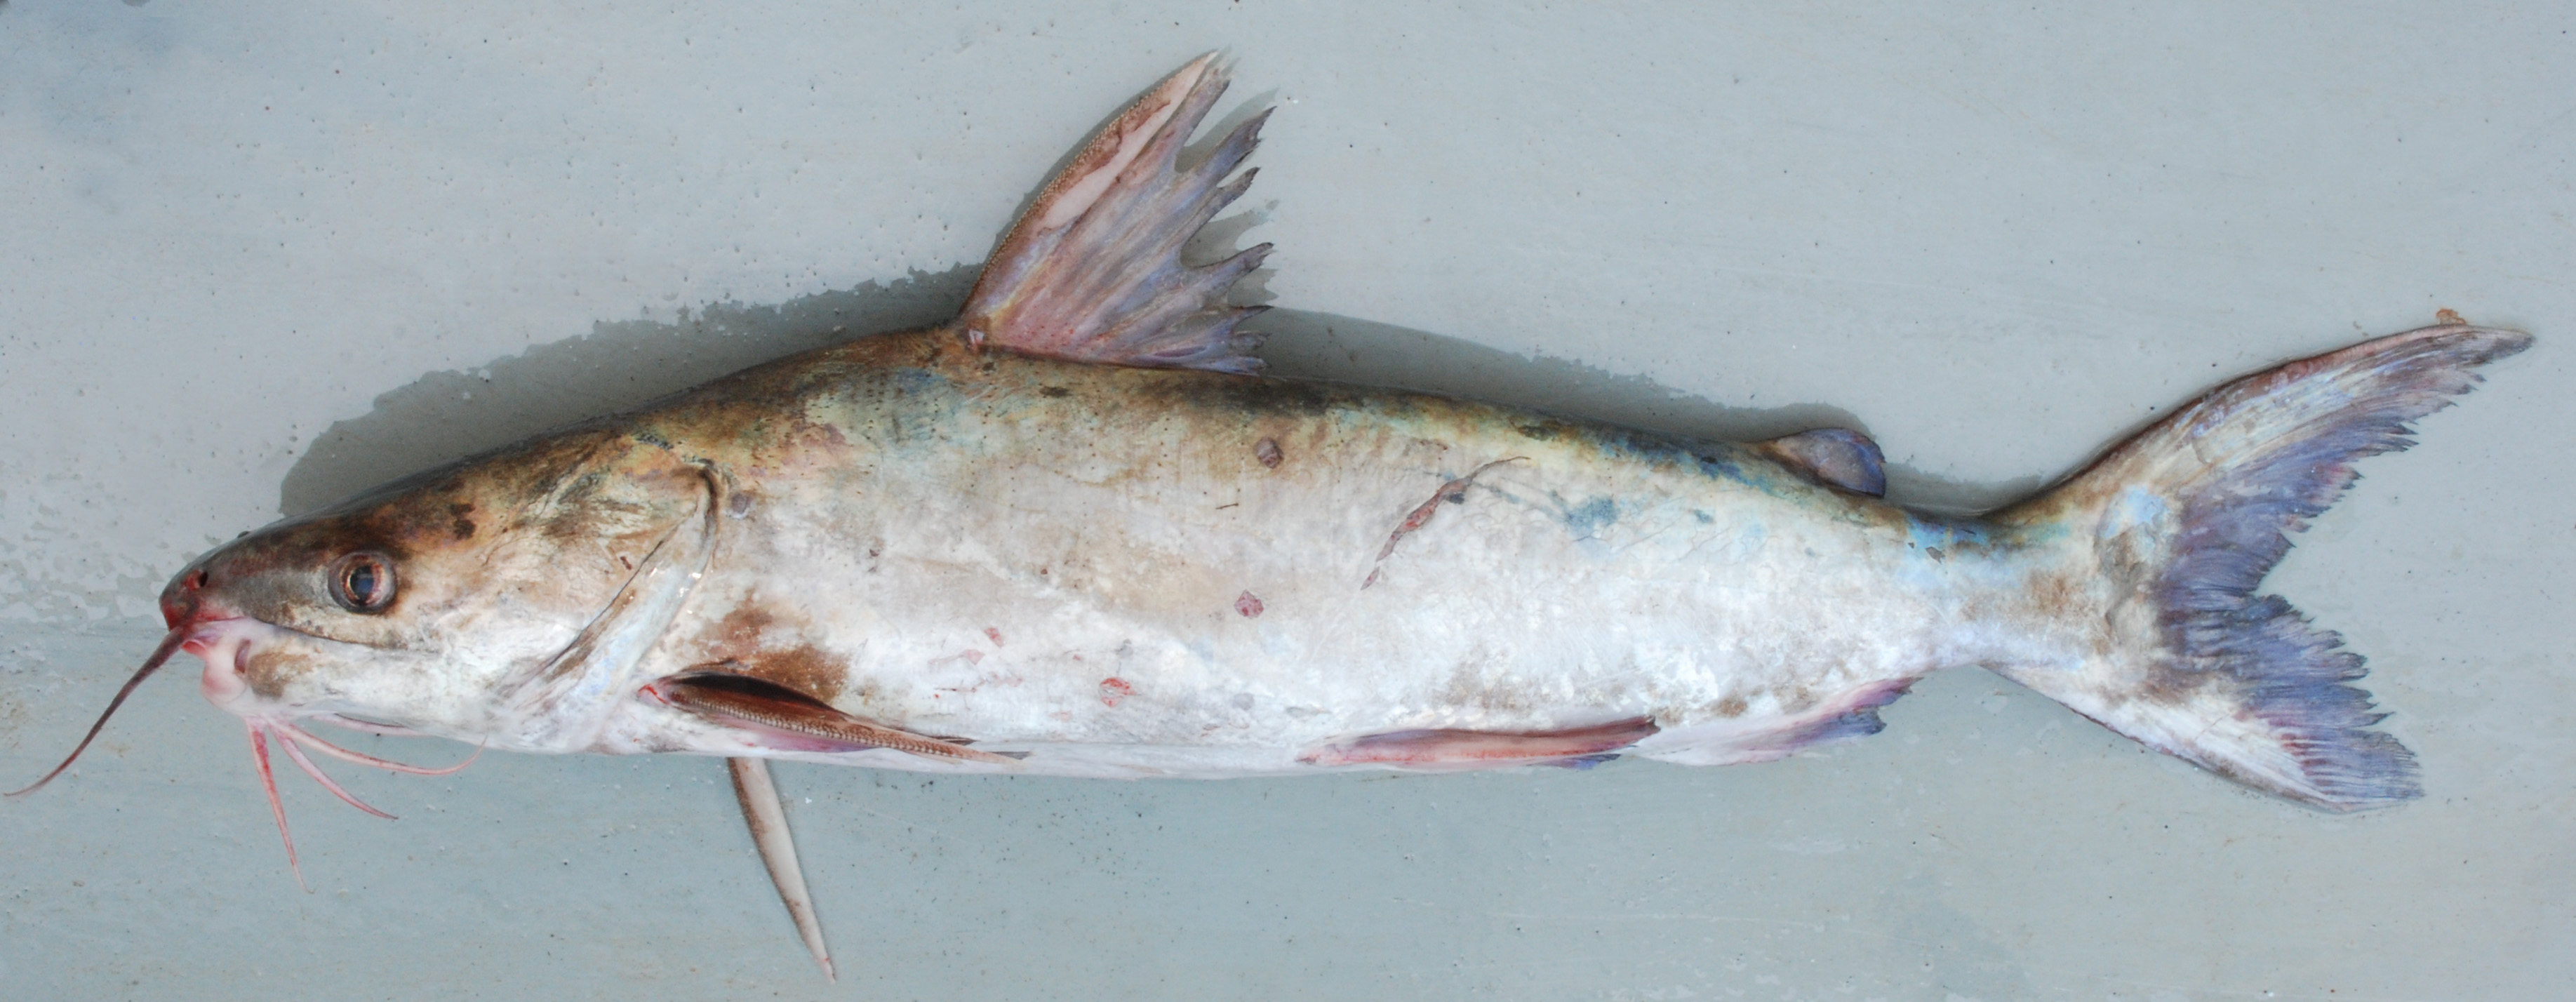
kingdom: Animalia
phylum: Chordata
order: Siluriformes
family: Ariidae
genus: Plicofollis
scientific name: Plicofollis dussumieri
